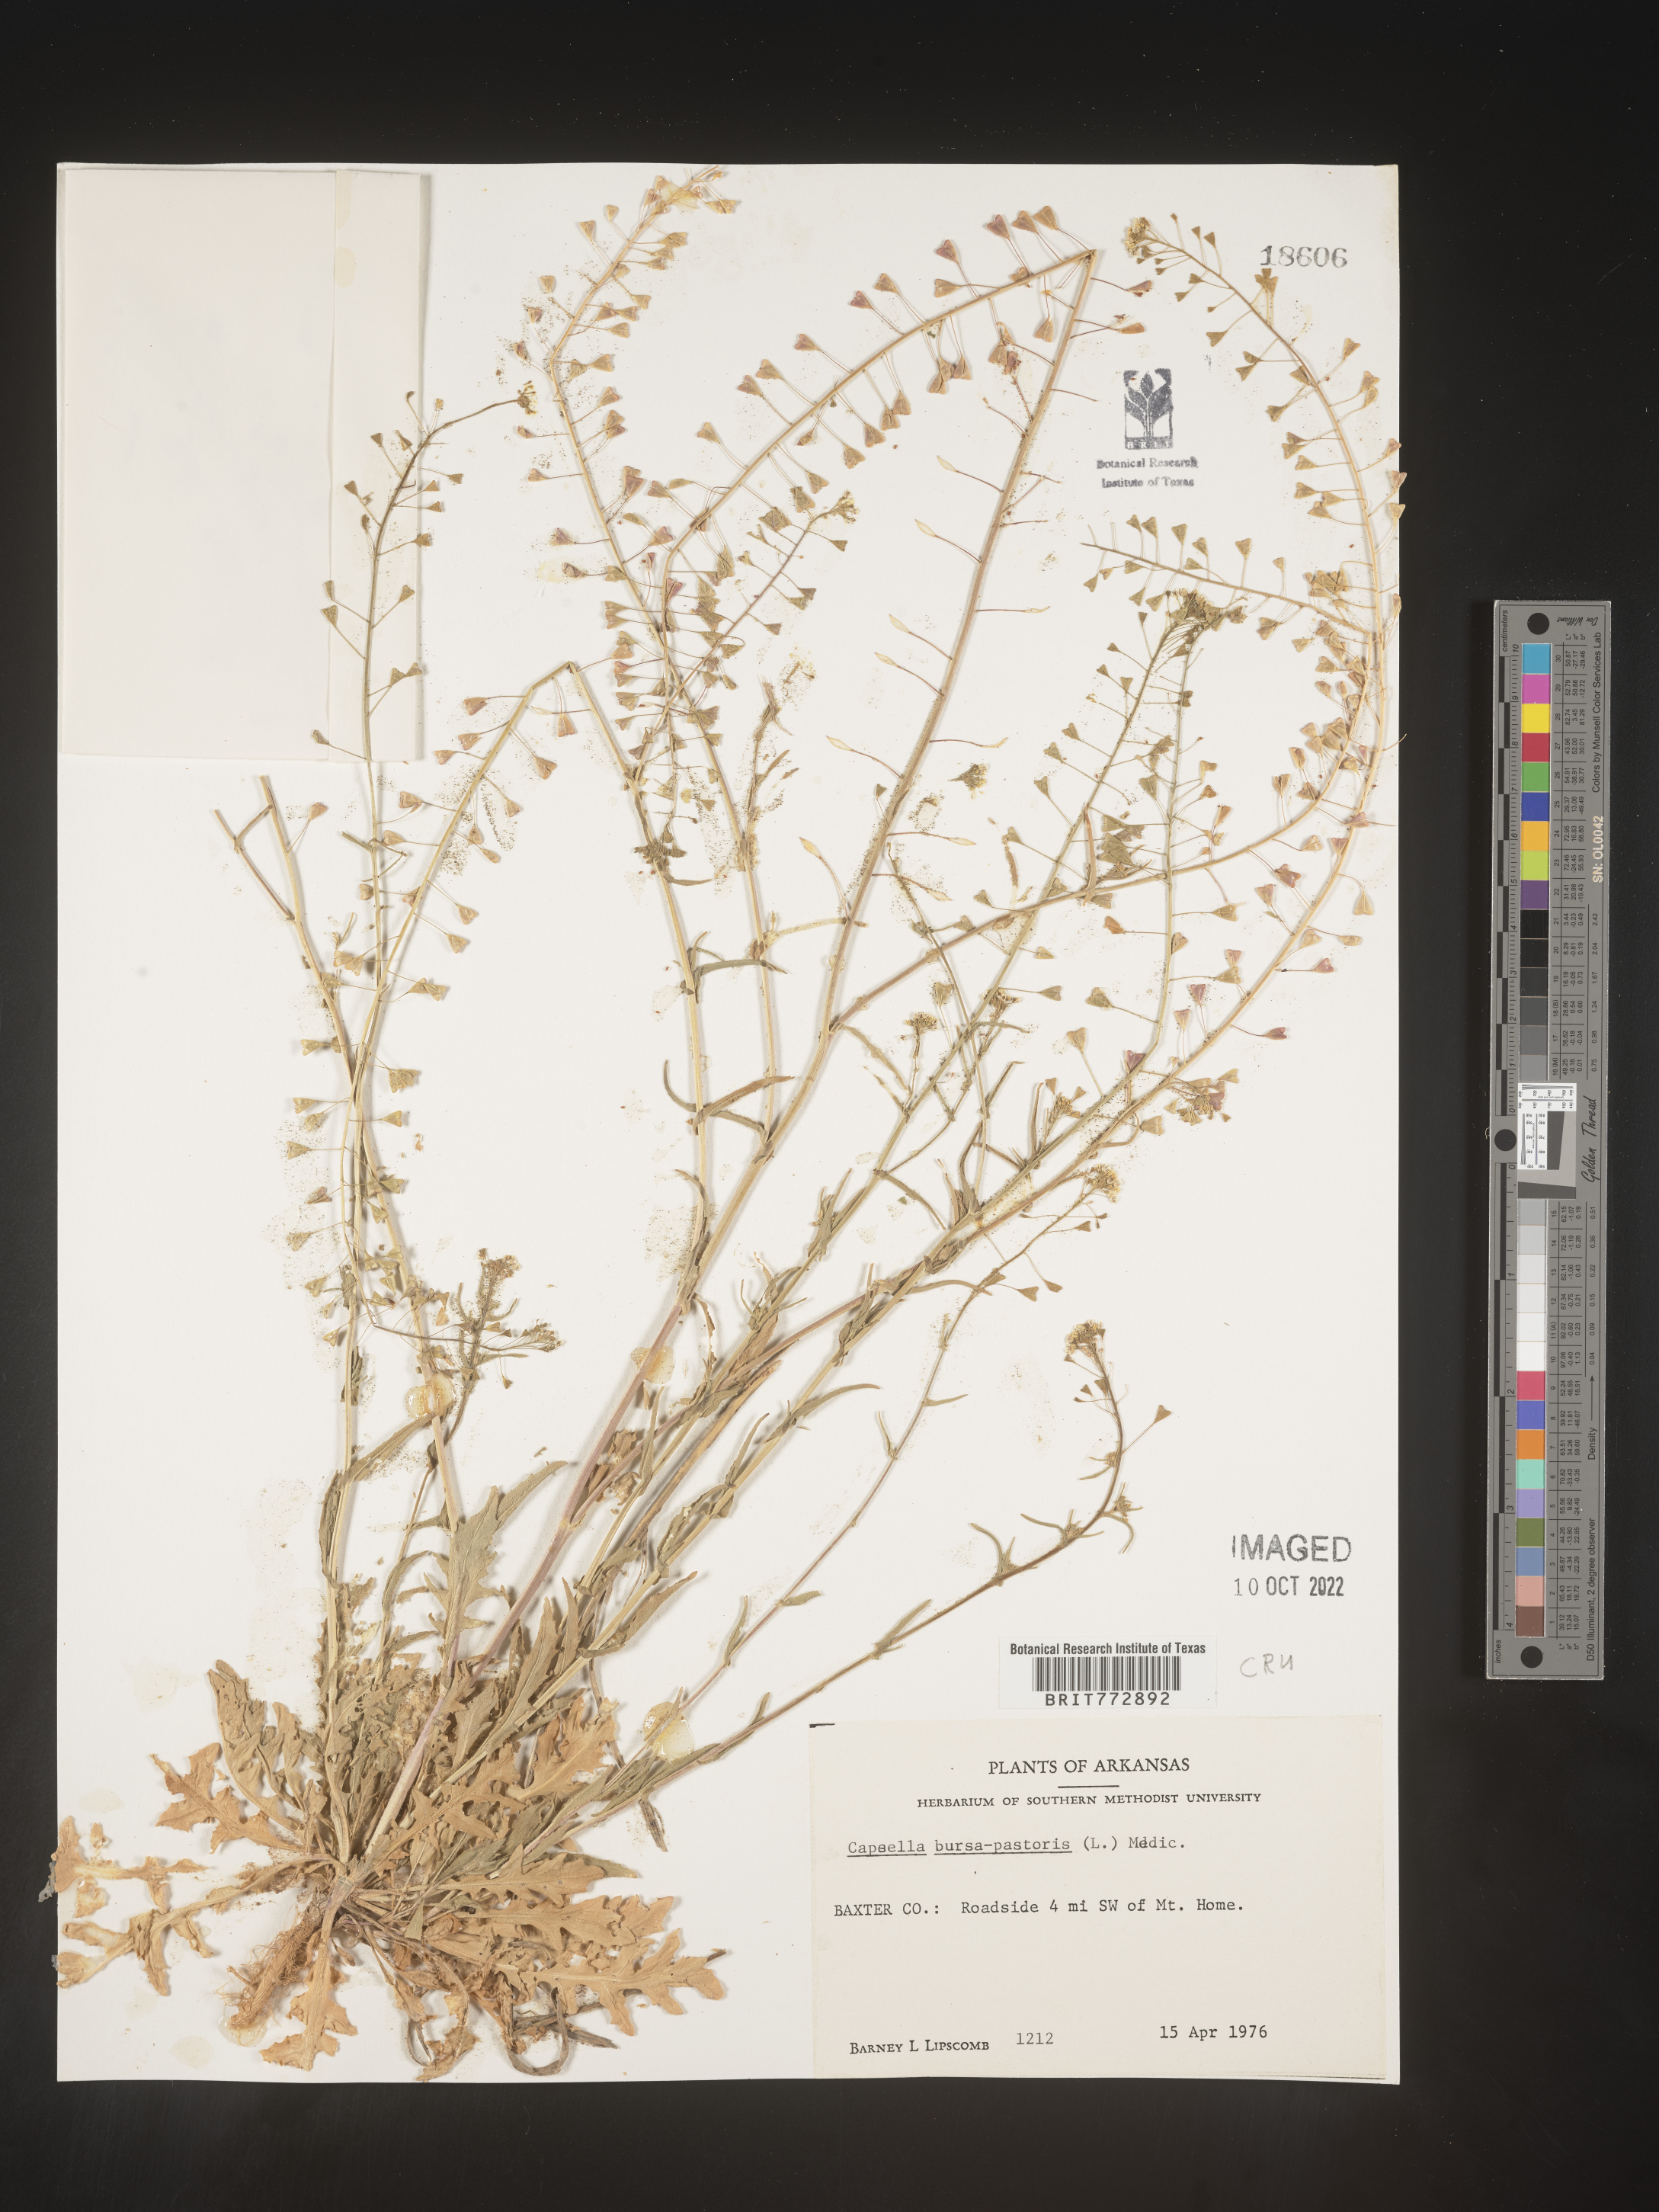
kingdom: Plantae
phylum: Tracheophyta
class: Magnoliopsida
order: Brassicales
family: Brassicaceae
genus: Capsella
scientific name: Capsella bursa-pastoris
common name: Shepherd's purse
